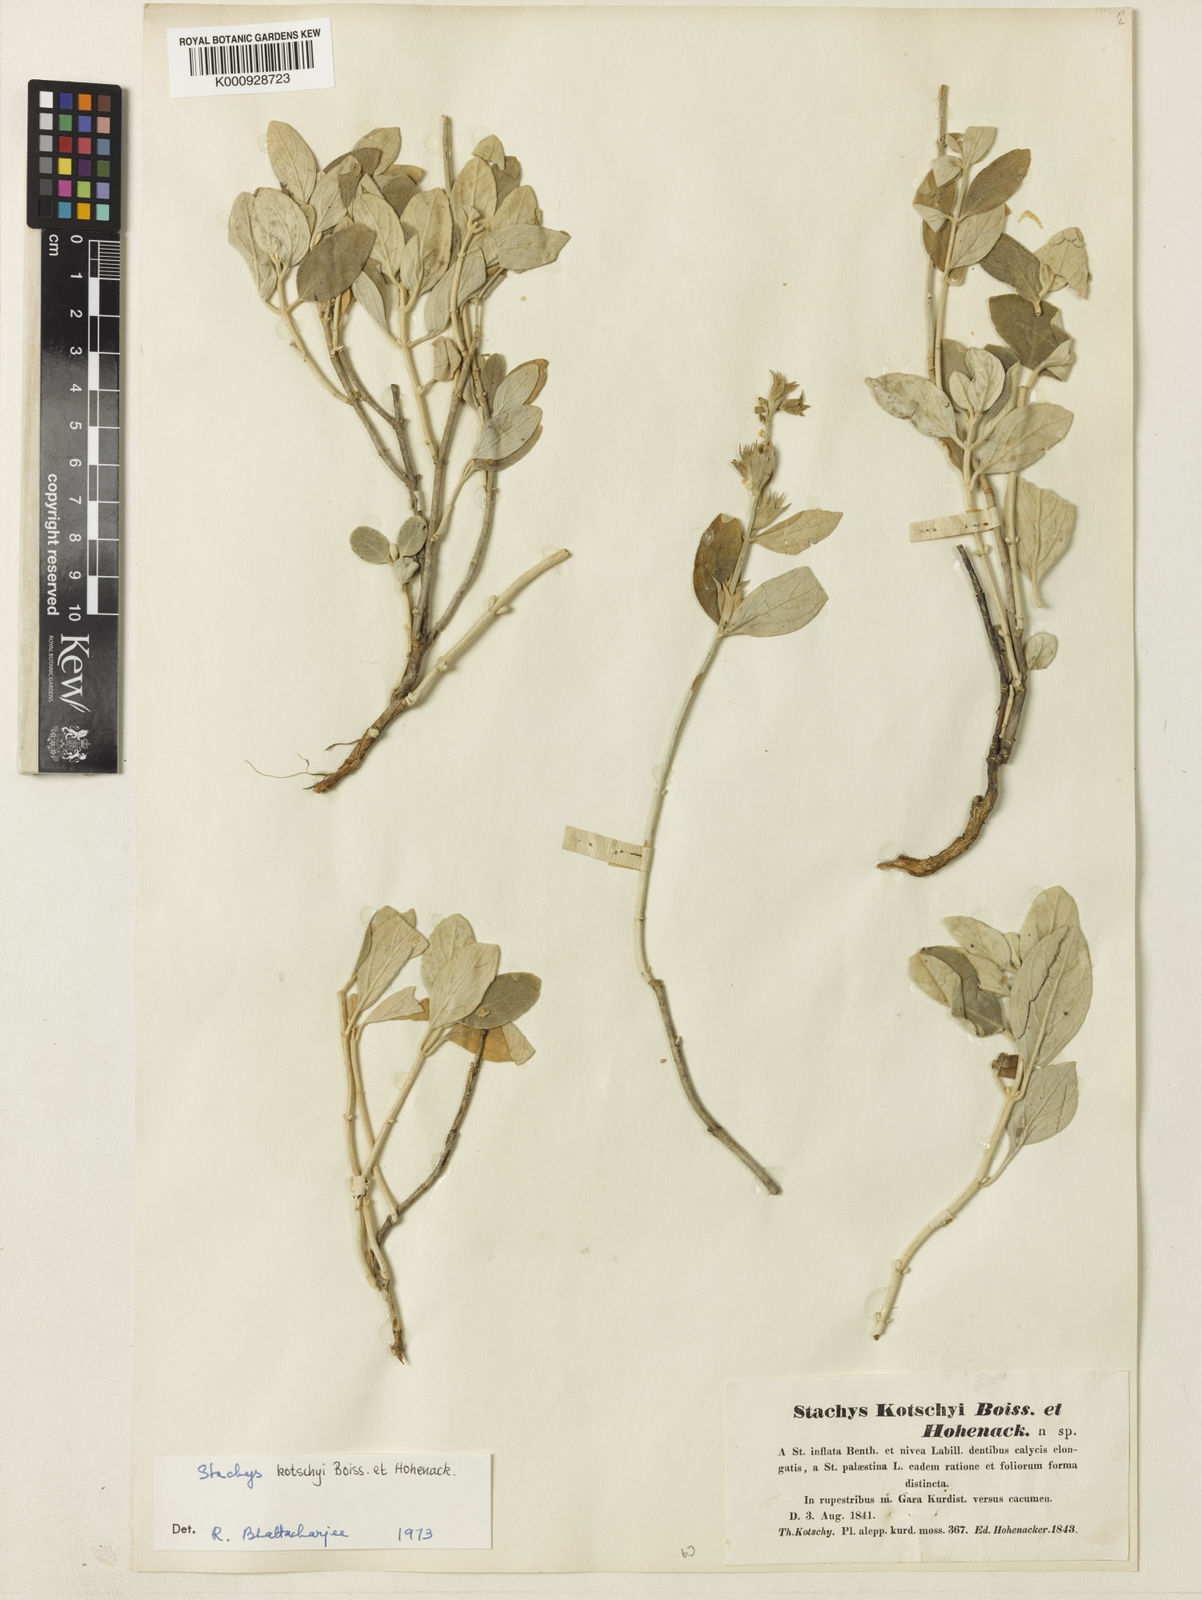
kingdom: Plantae
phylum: Tracheophyta
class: Magnoliopsida
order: Lamiales
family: Lamiaceae
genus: Stachys
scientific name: Stachys kotschyi
